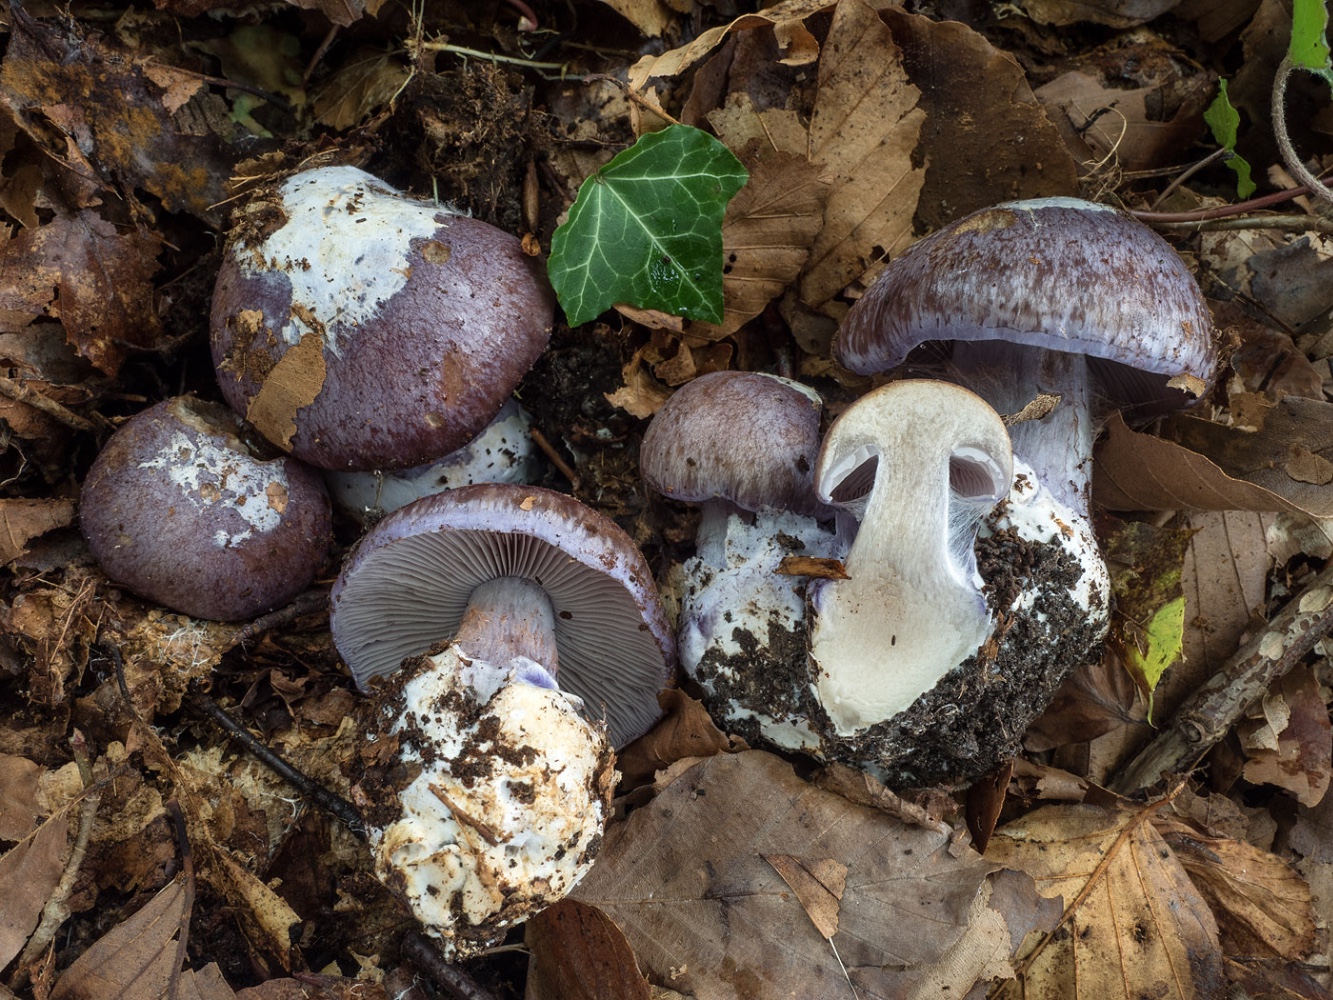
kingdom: Fungi
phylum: Basidiomycota
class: Agaricomycetes
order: Agaricales
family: Cortinariaceae
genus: Phlegmacium
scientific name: Phlegmacium moenne-loccozii
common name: pose-slørhat
